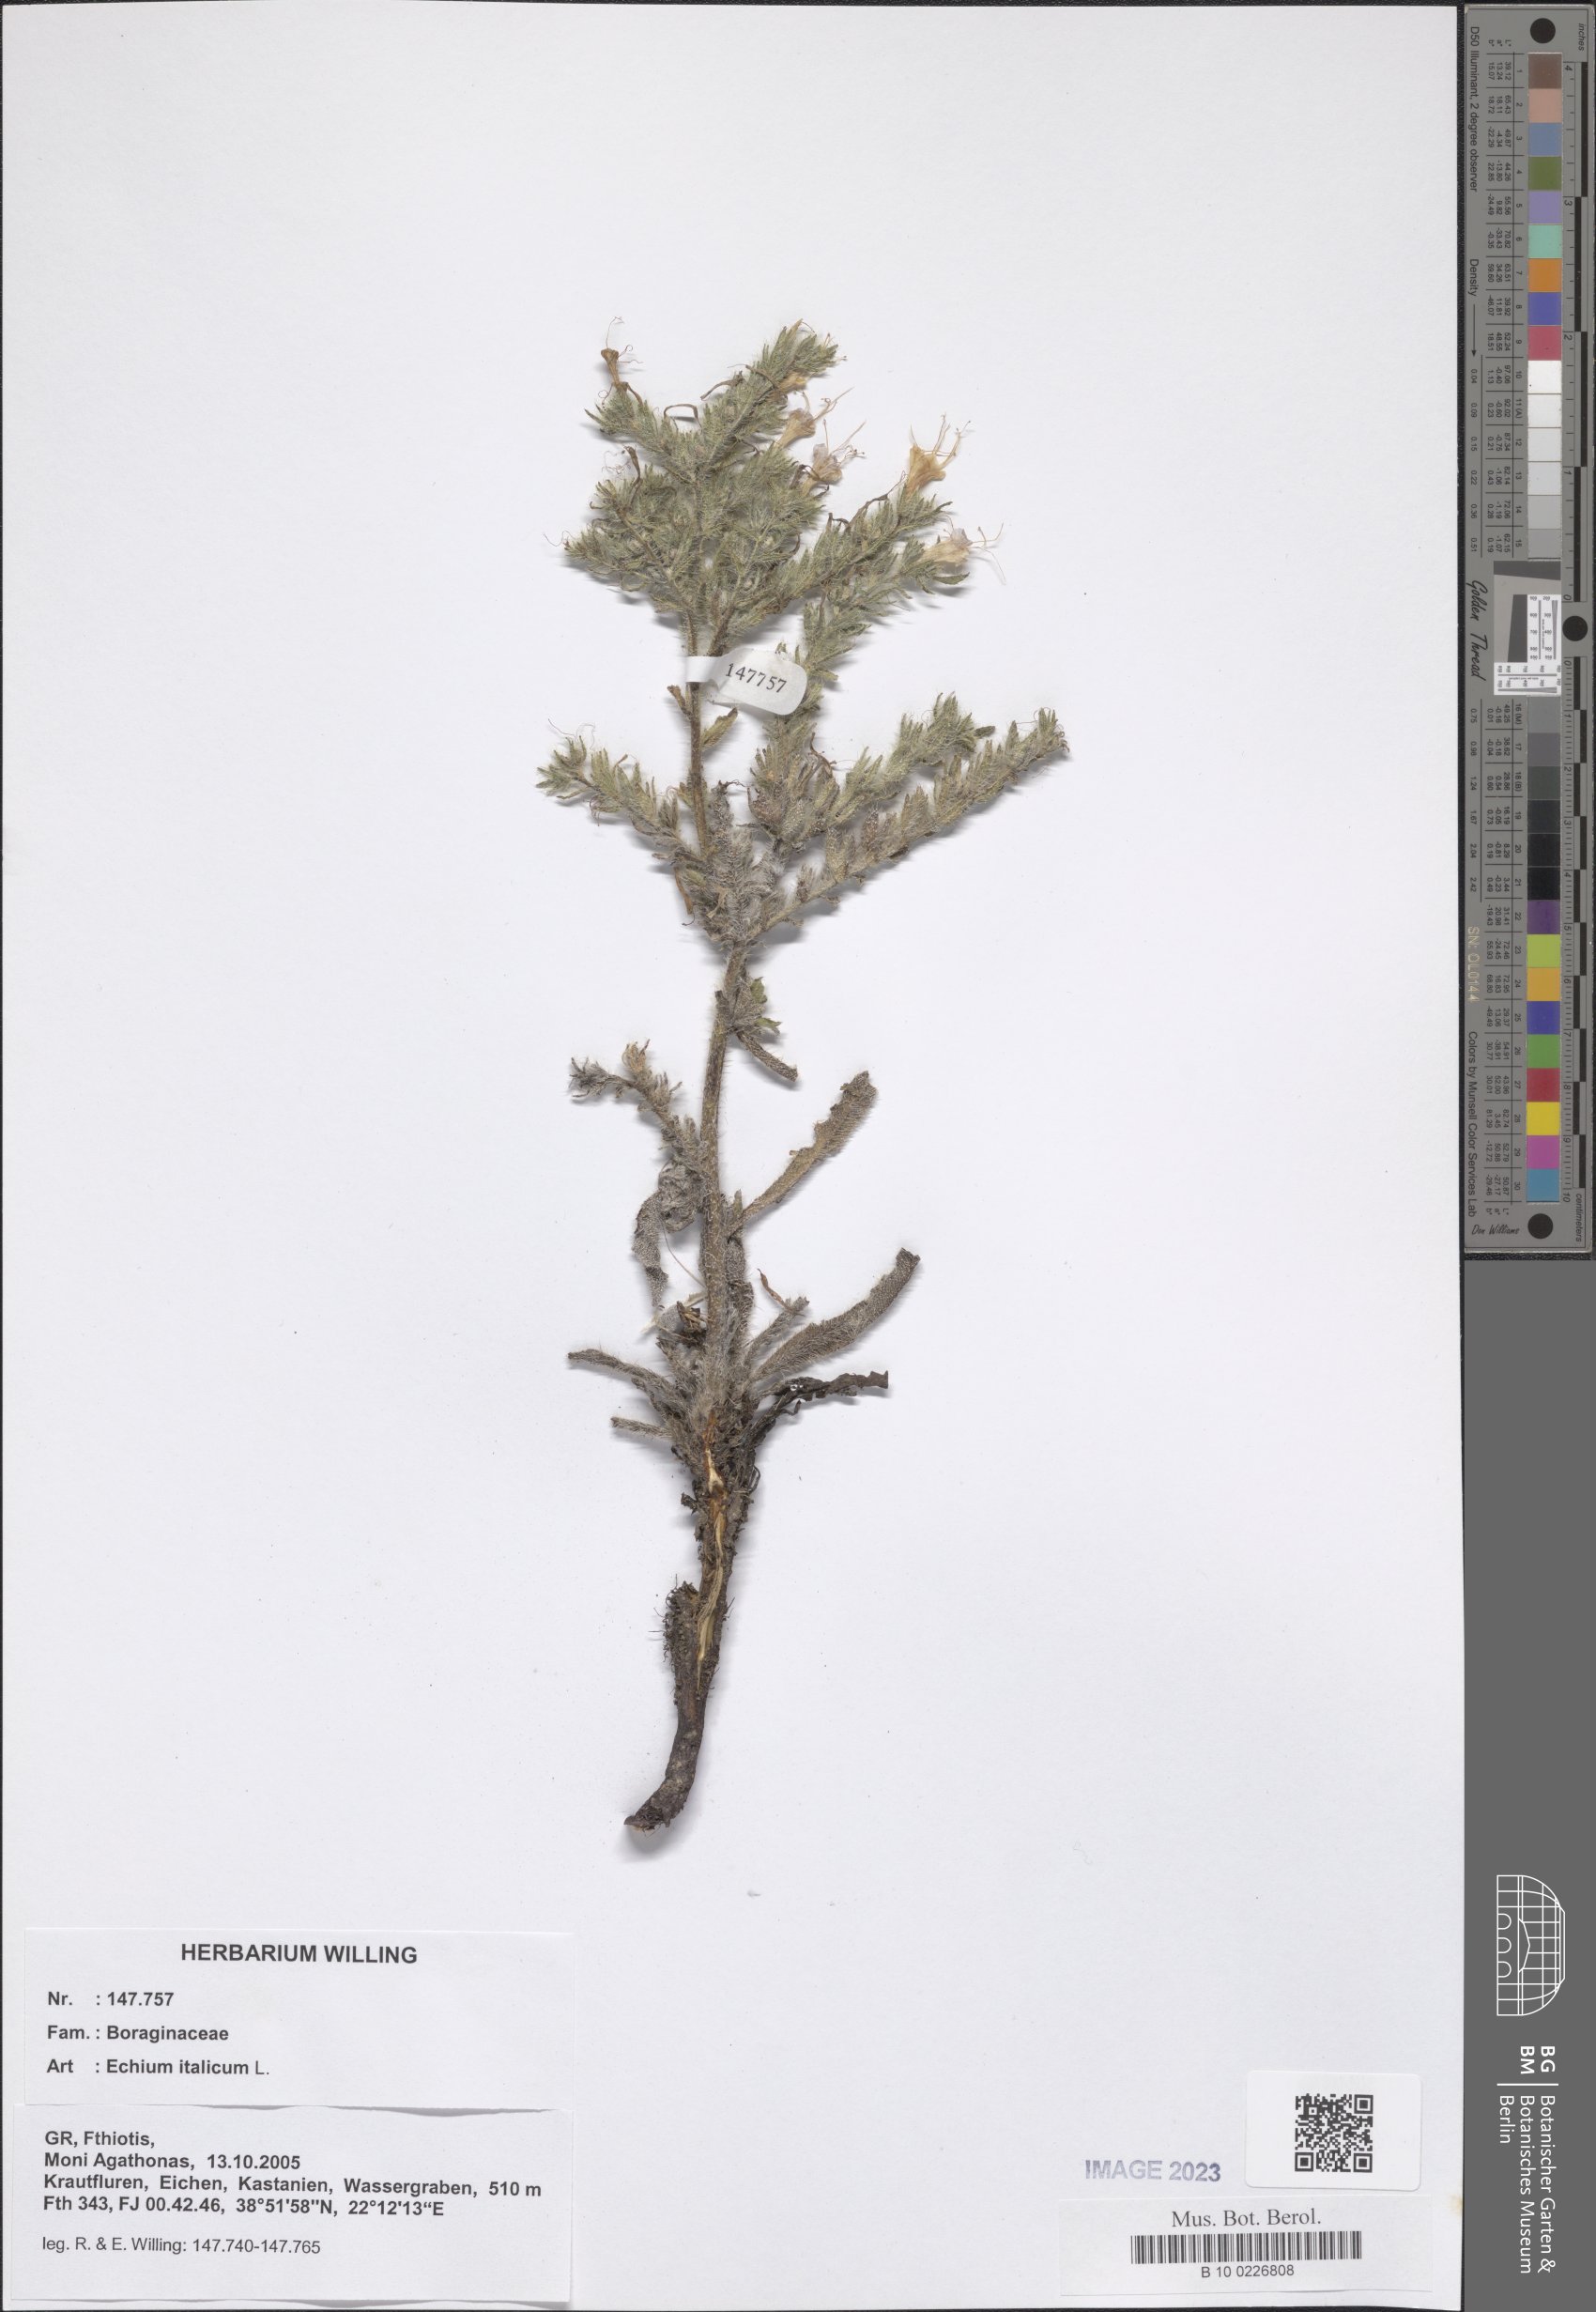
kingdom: Plantae
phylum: Tracheophyta
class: Magnoliopsida
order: Boraginales
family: Boraginaceae
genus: Echium
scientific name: Echium italicum
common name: Italian viper's bugloss
